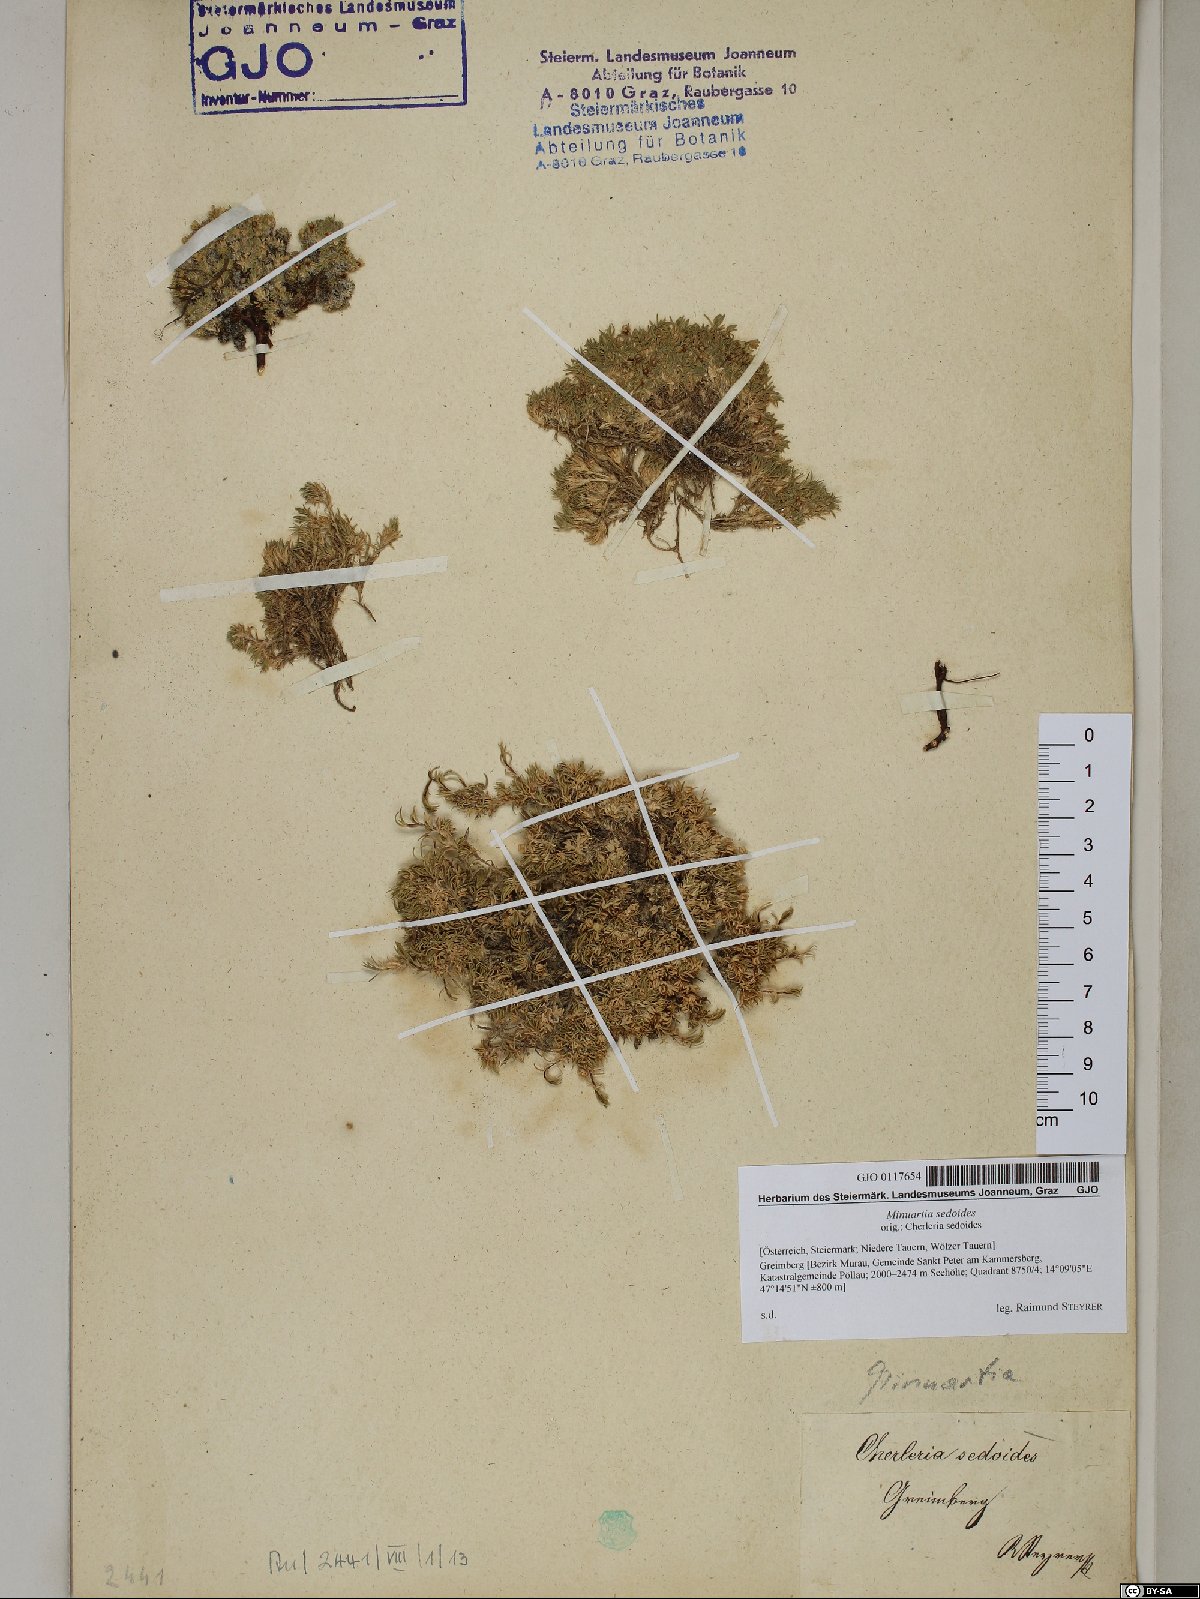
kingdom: Plantae
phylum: Tracheophyta
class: Magnoliopsida
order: Caryophyllales
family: Caryophyllaceae
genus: Cherleria
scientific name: Cherleria sedoides
